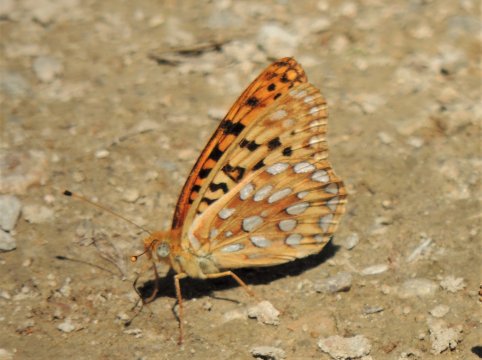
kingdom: Animalia
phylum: Arthropoda
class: Insecta
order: Lepidoptera
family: Nymphalidae
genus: Speyeria
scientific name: Speyeria coronis
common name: Coronis Fritillary
